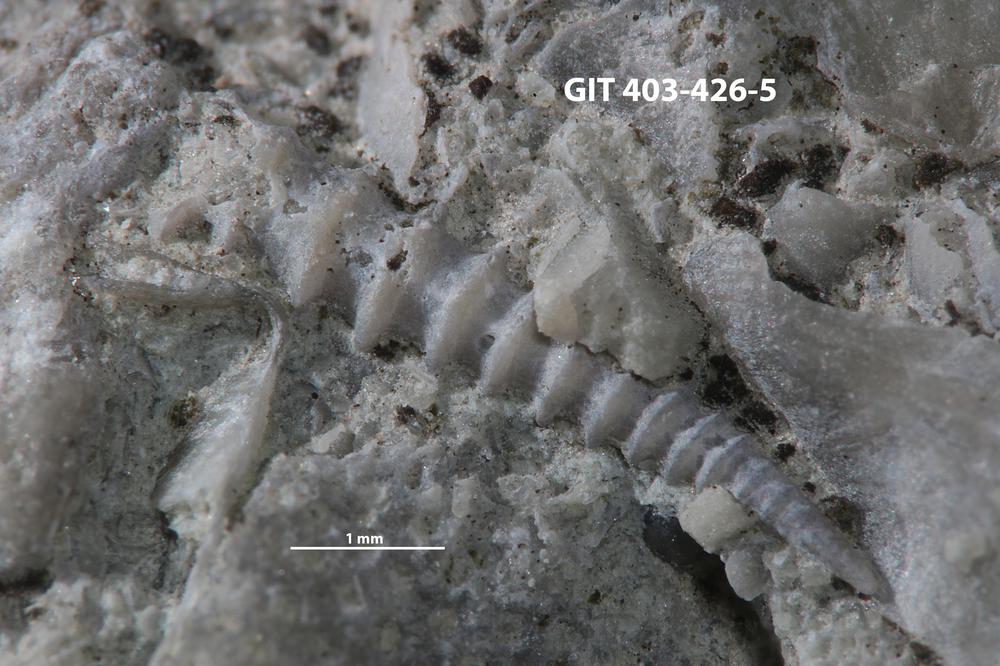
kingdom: Animalia
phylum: Mollusca
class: Cricoconarida
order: Tentaculitida
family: Tentaculitidae
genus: Tentaculites
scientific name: Tentaculites
